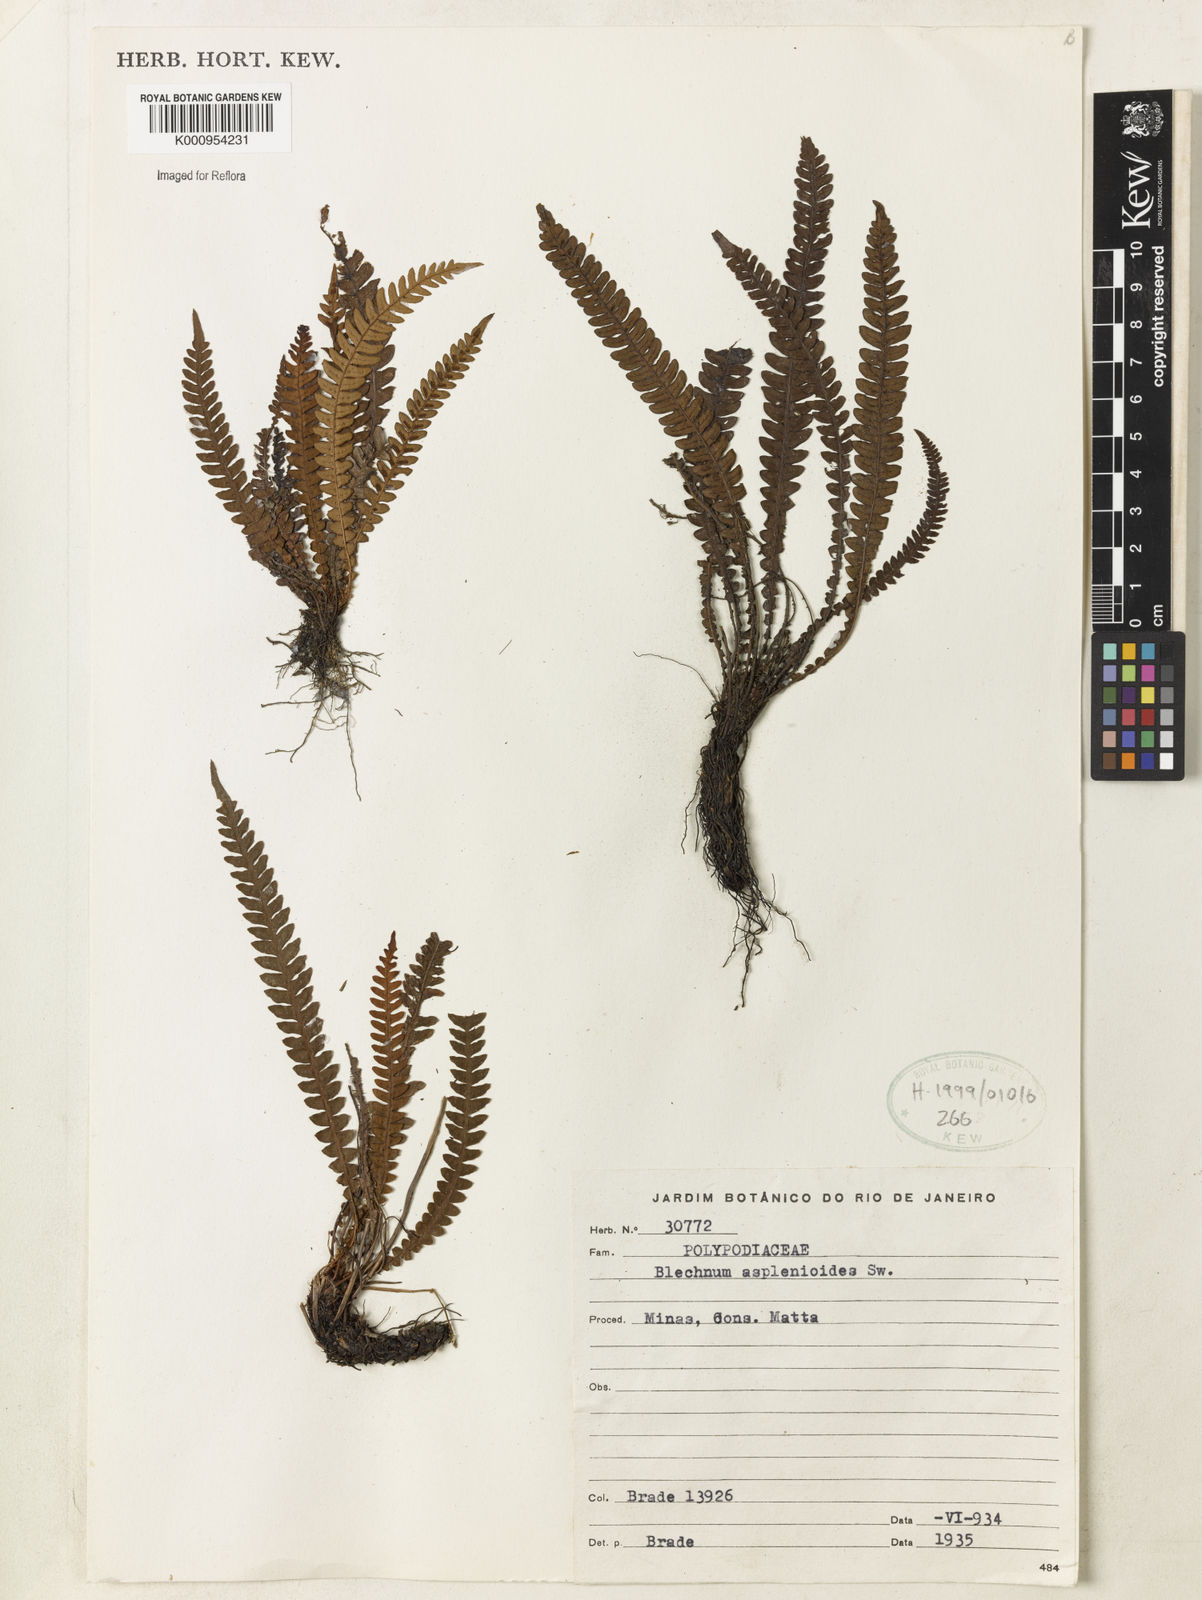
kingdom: Plantae
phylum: Tracheophyta
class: Polypodiopsida
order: Polypodiales
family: Blechnaceae
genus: Blechnum
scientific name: Blechnum asplenioides
